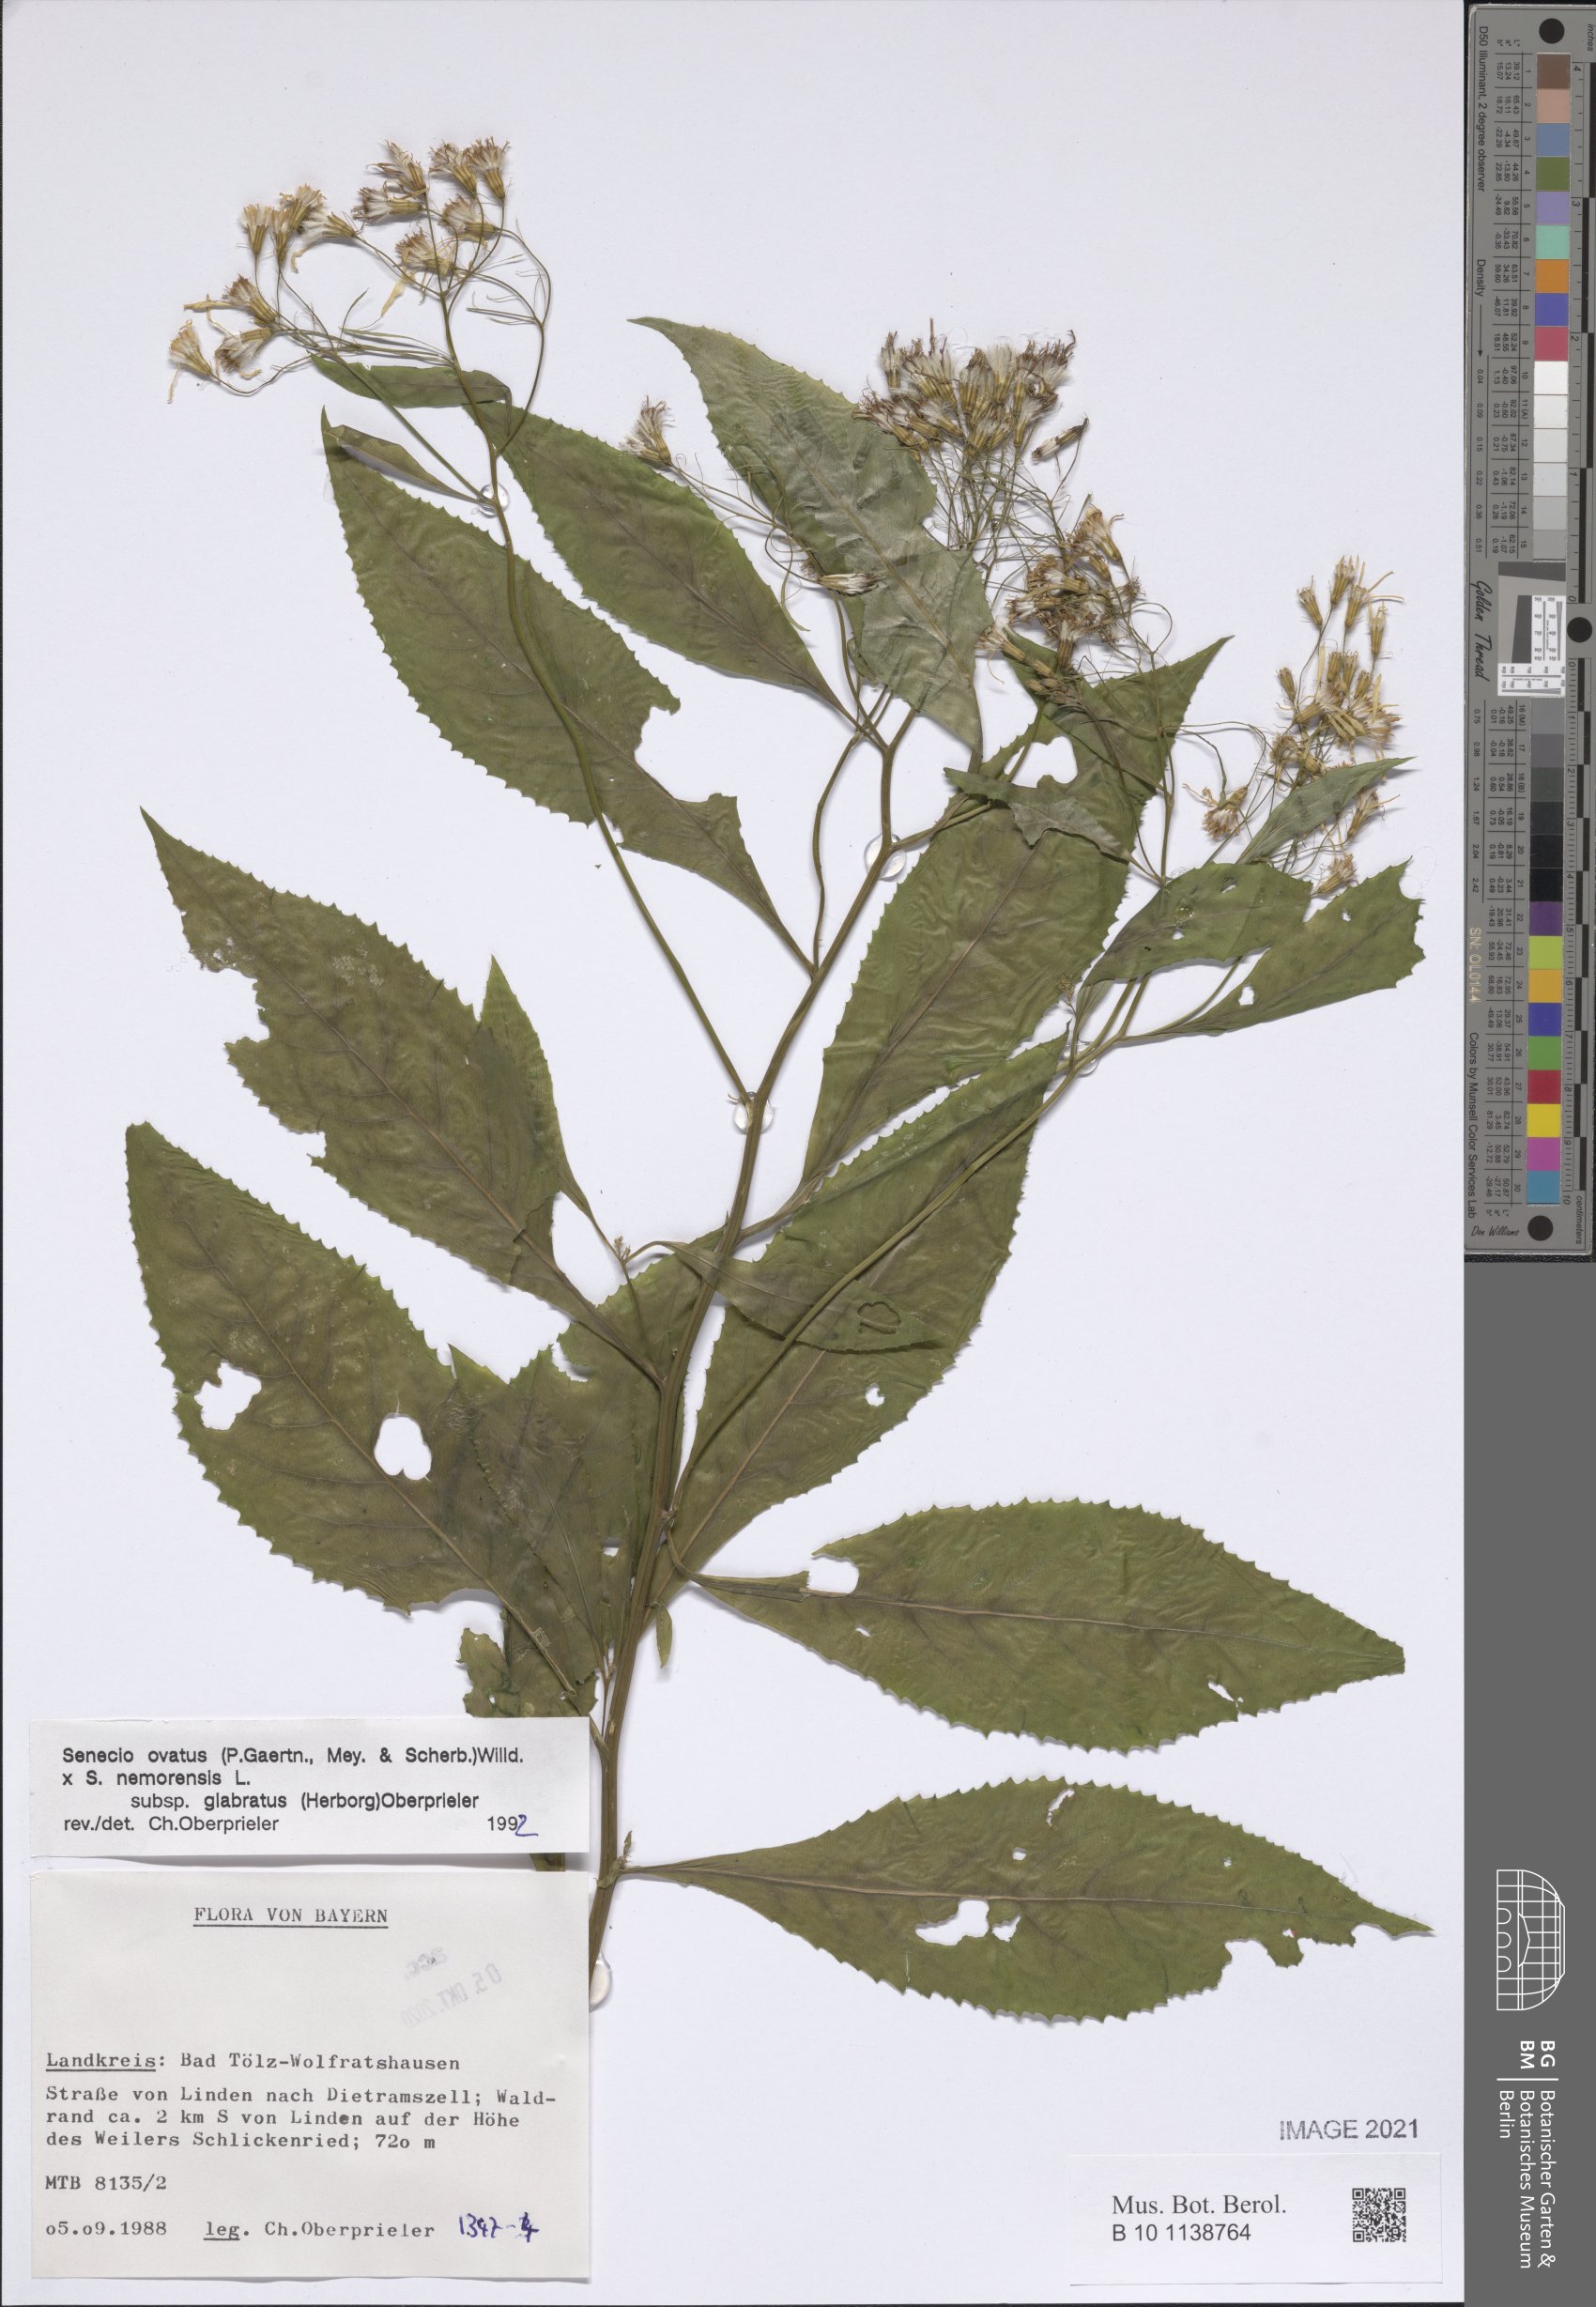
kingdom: Plantae
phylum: Tracheophyta
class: Magnoliopsida
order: Asterales
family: Asteraceae
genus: Senecio
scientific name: Senecio ovatus
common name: Wood ragwort
